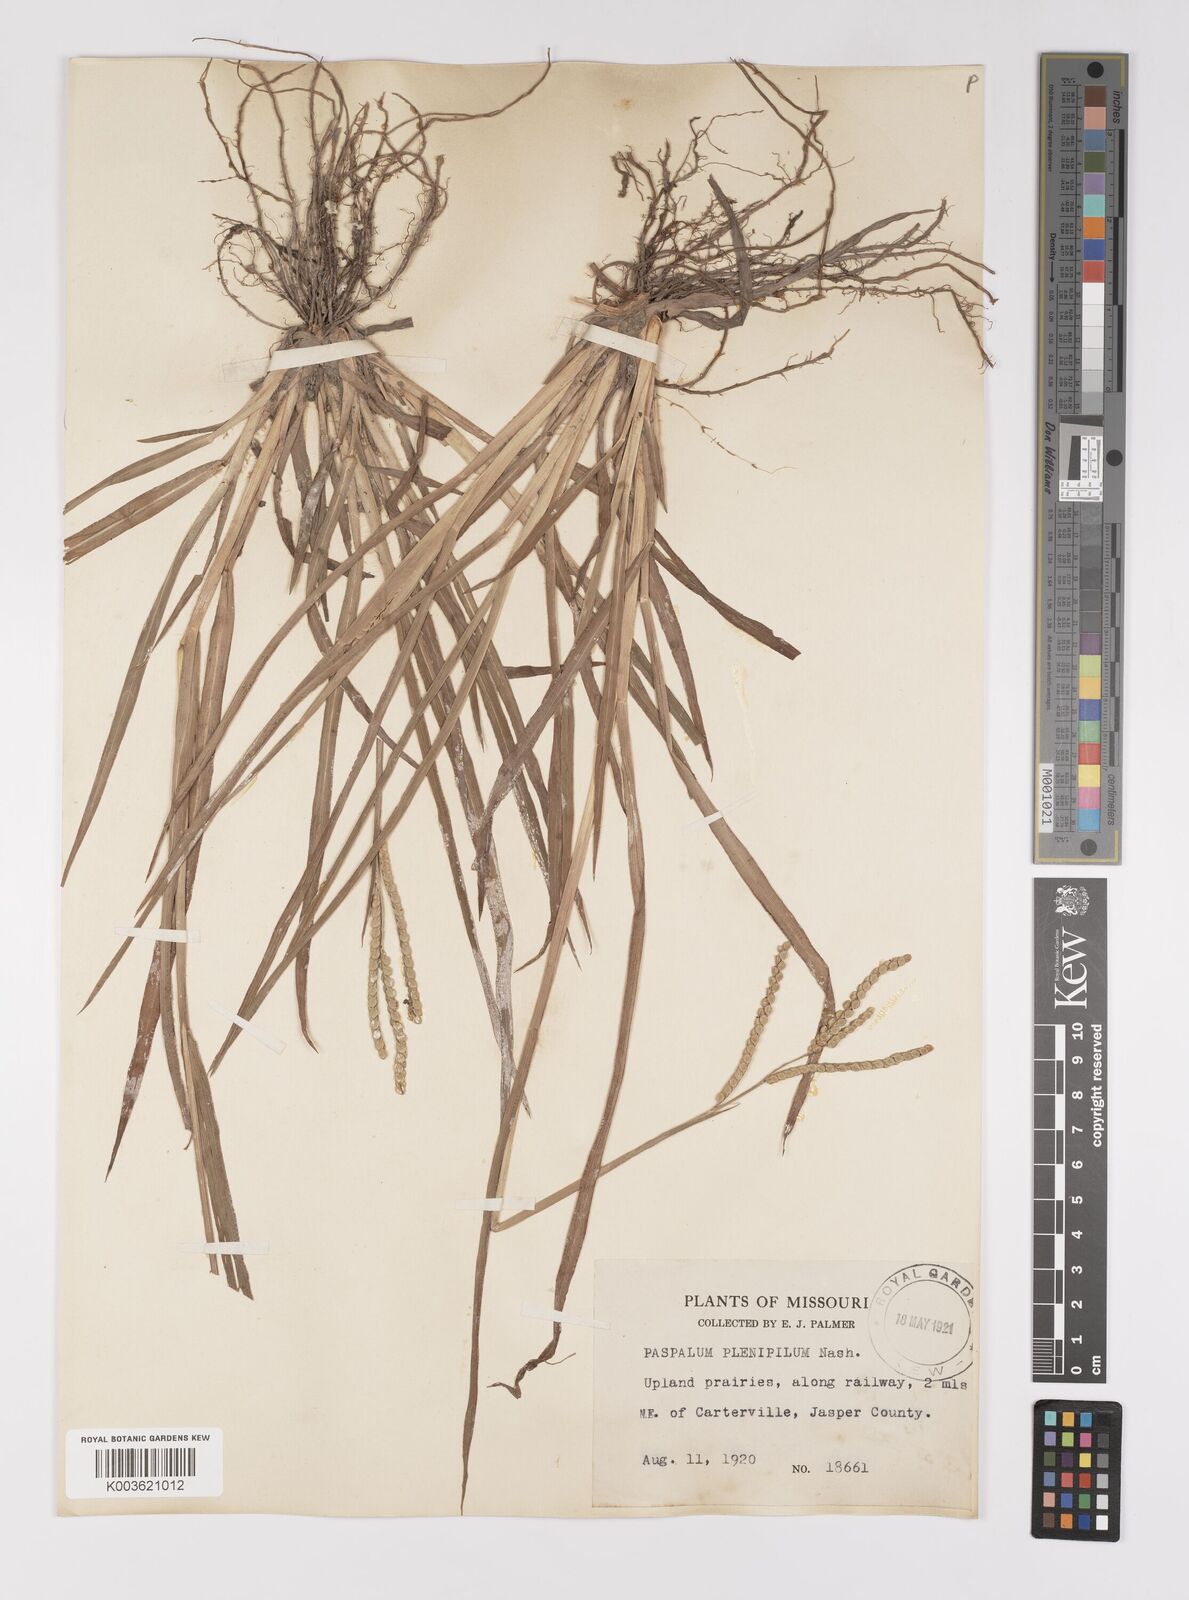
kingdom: Plantae
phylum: Tracheophyta
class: Liliopsida
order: Poales
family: Poaceae
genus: Paspalum
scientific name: Paspalum laeve
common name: Field paspalum
